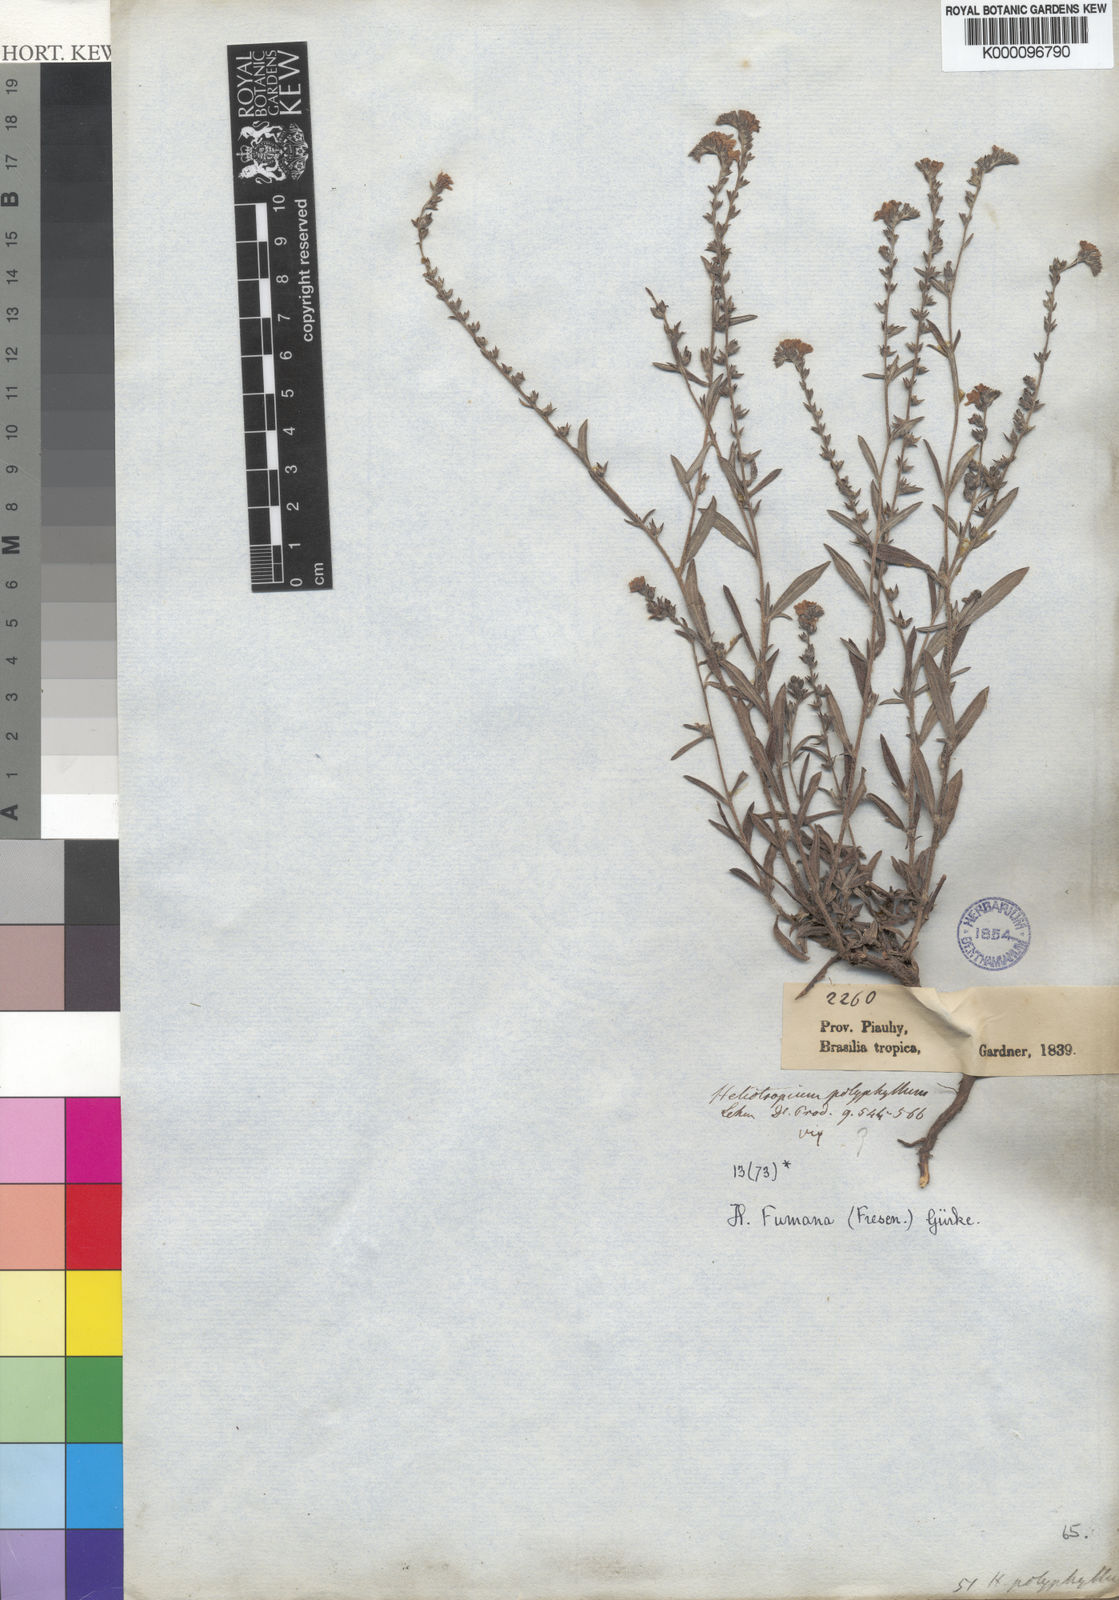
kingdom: Plantae
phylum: Tracheophyta
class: Magnoliopsida
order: Boraginales
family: Heliotropiaceae
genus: Heliotropium
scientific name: Heliotropium
